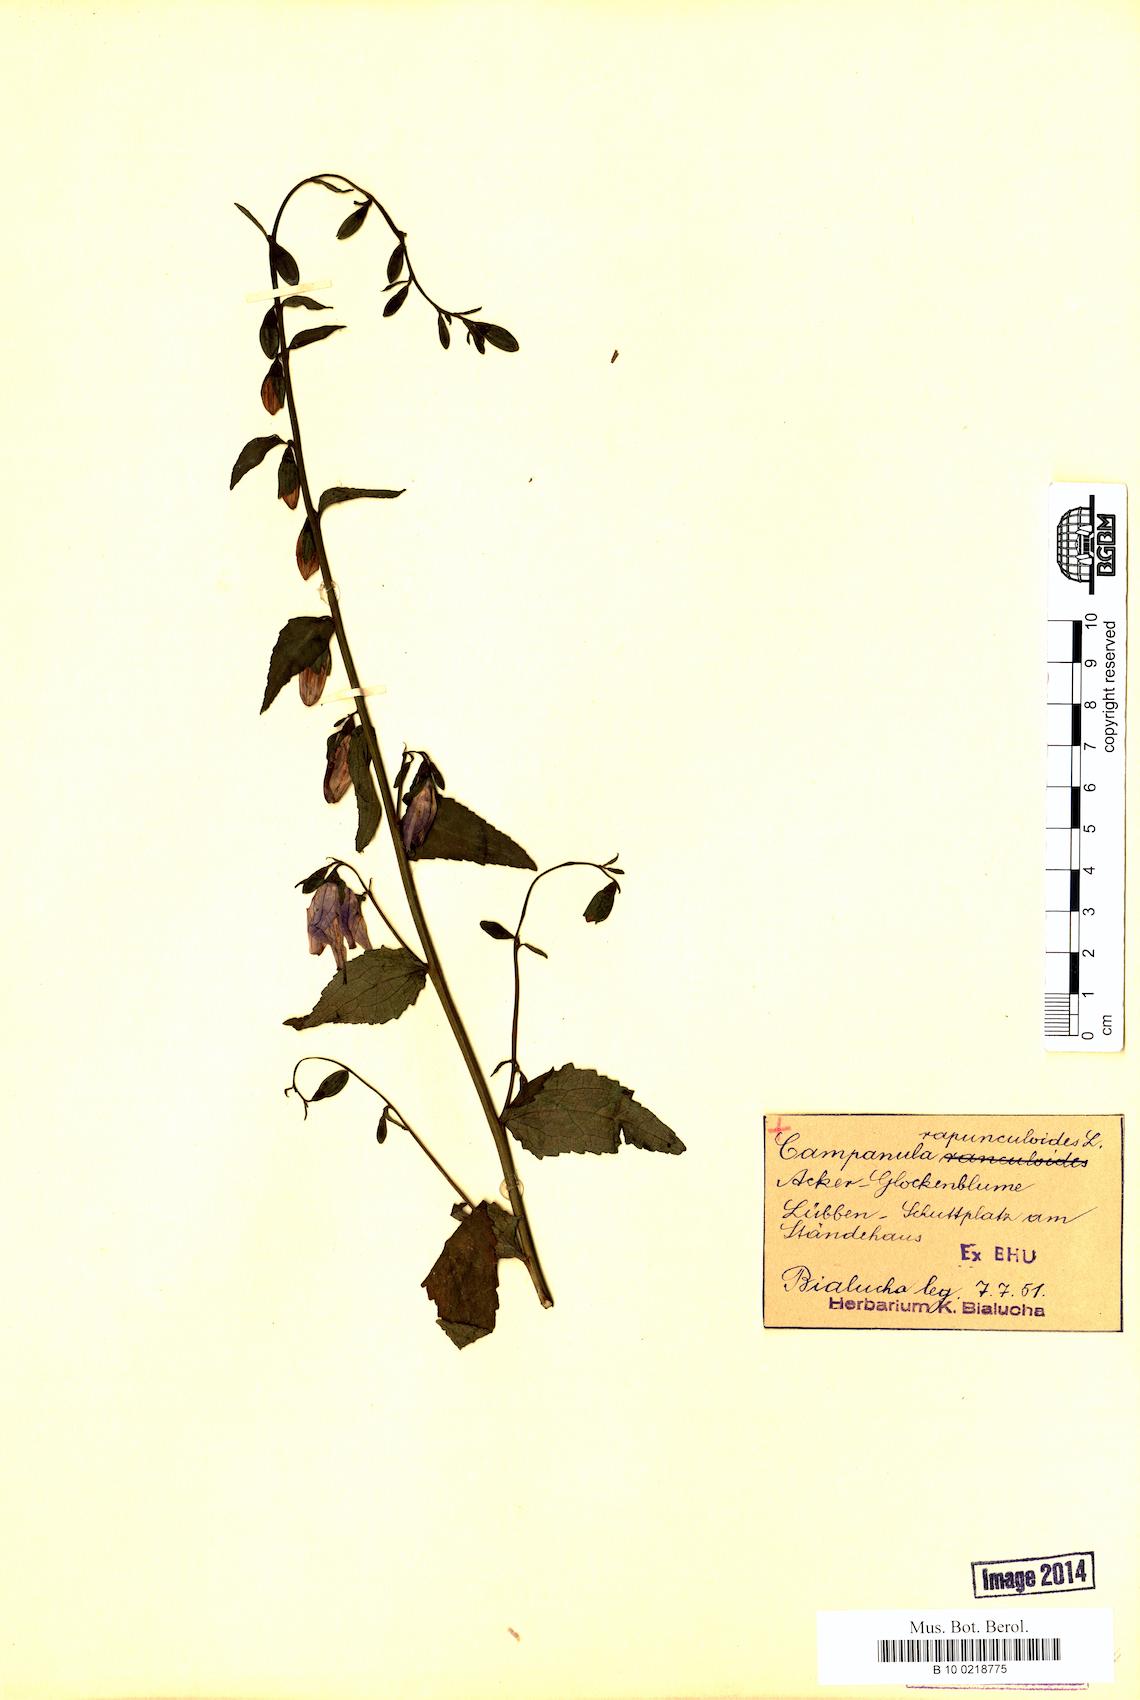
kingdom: Plantae
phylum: Tracheophyta
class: Magnoliopsida
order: Asterales
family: Campanulaceae
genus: Campanula
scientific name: Campanula rapunculoides
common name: Creeping bellflower
